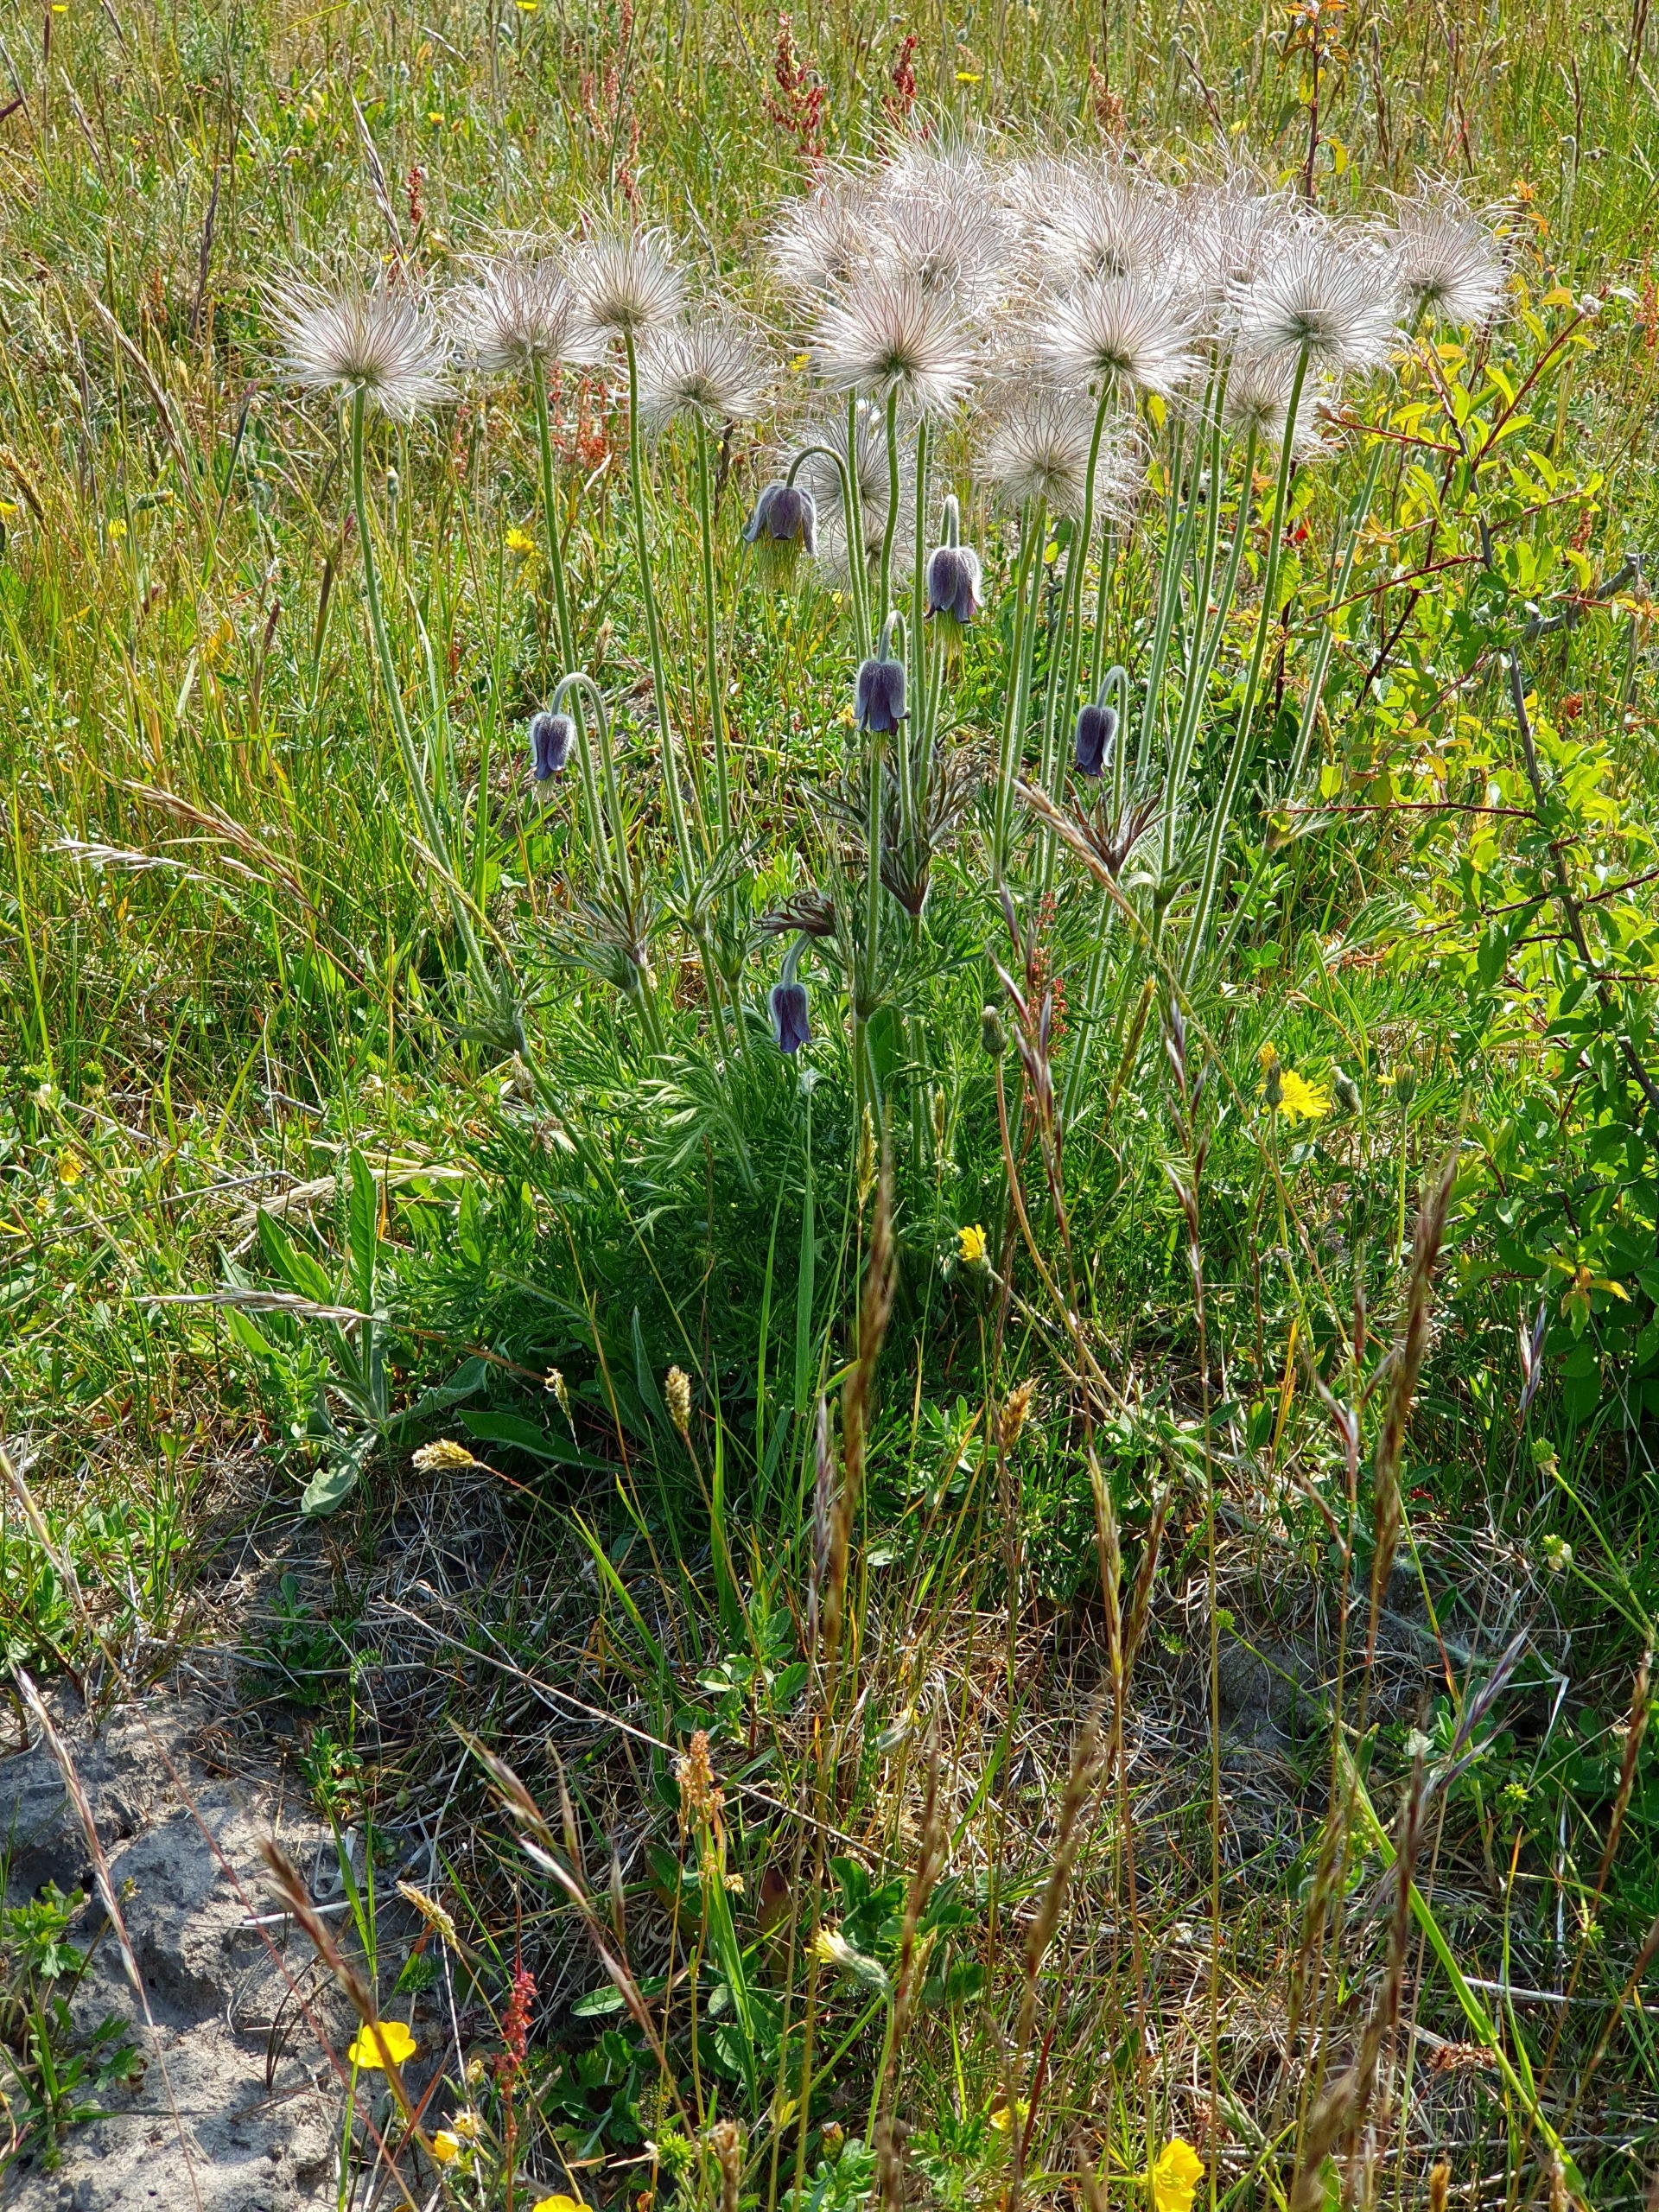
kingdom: Plantae
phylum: Tracheophyta
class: Magnoliopsida
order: Ranunculales
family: Ranunculaceae
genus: Pulsatilla
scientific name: Pulsatilla pratensis
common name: Nikkende kobjælde
